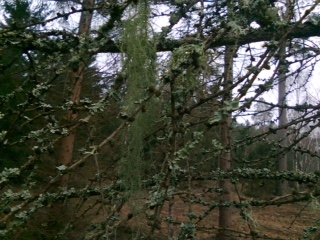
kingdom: Fungi
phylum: Ascomycota
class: Lecanoromycetes
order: Lecanorales
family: Parmeliaceae
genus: Usnea
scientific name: Usnea dasypoga
